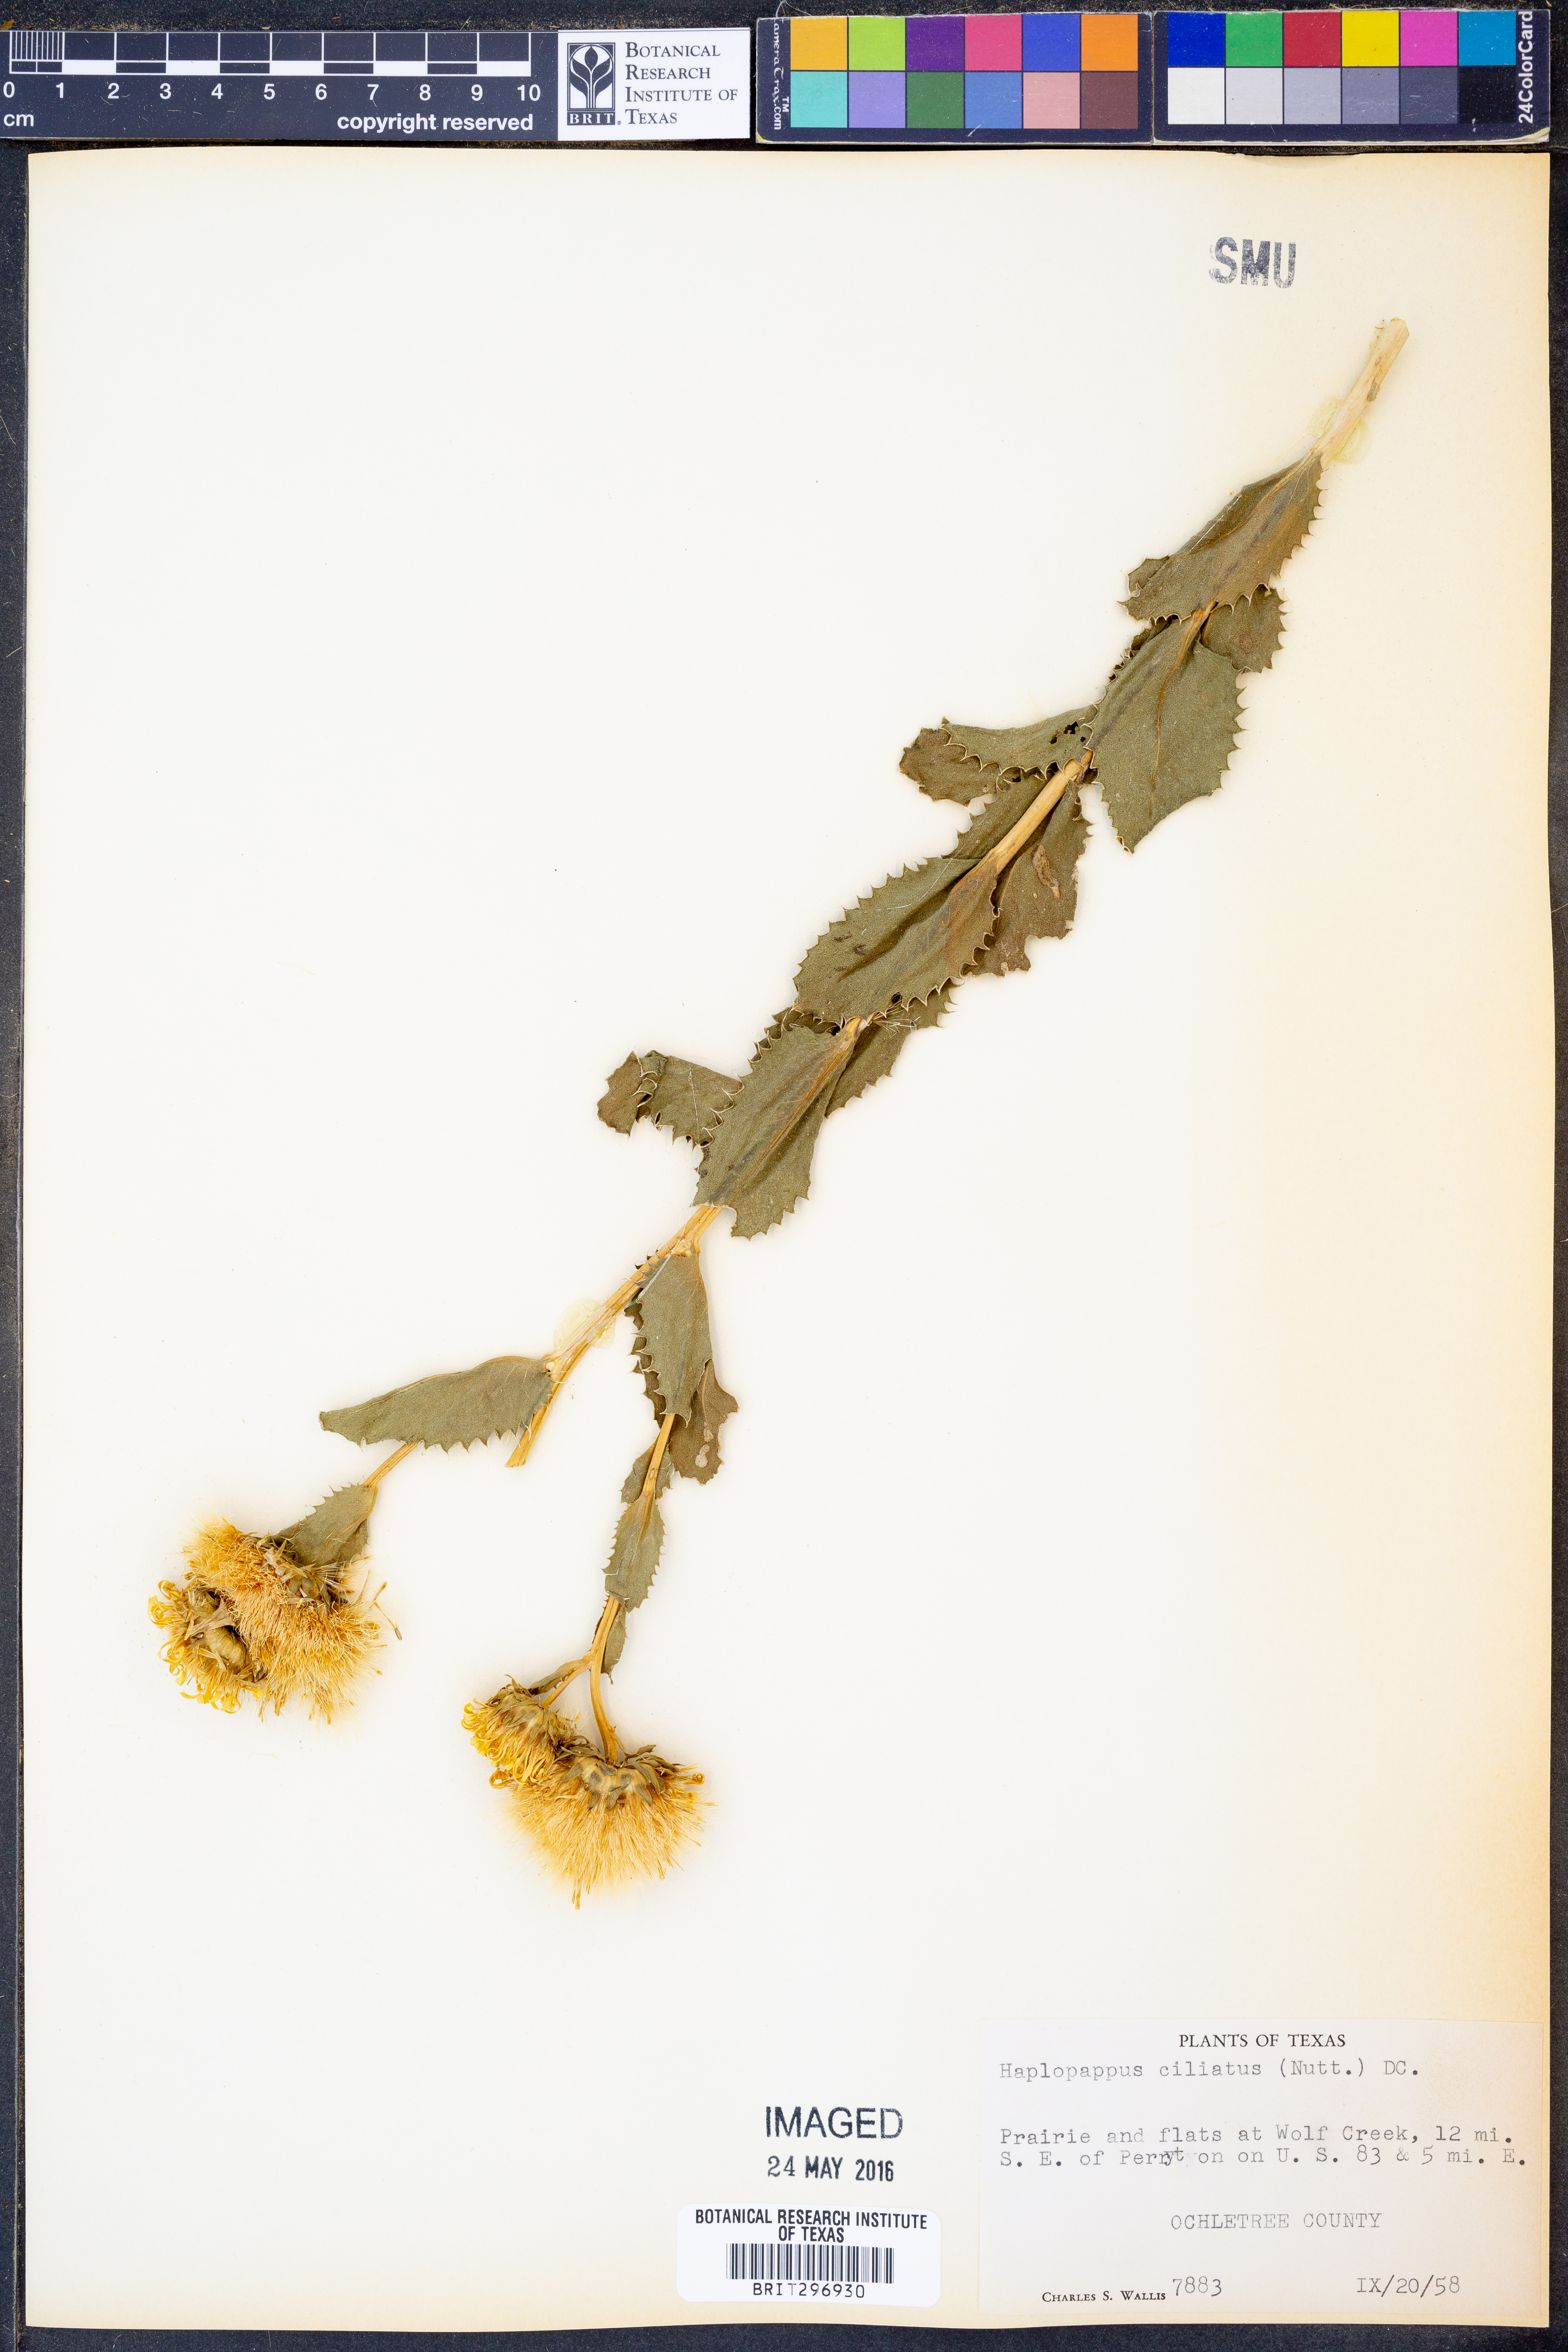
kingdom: Plantae
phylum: Tracheophyta
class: Magnoliopsida
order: Asterales
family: Asteraceae
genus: Grindelia
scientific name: Grindelia ciliata
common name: Goldenweed
